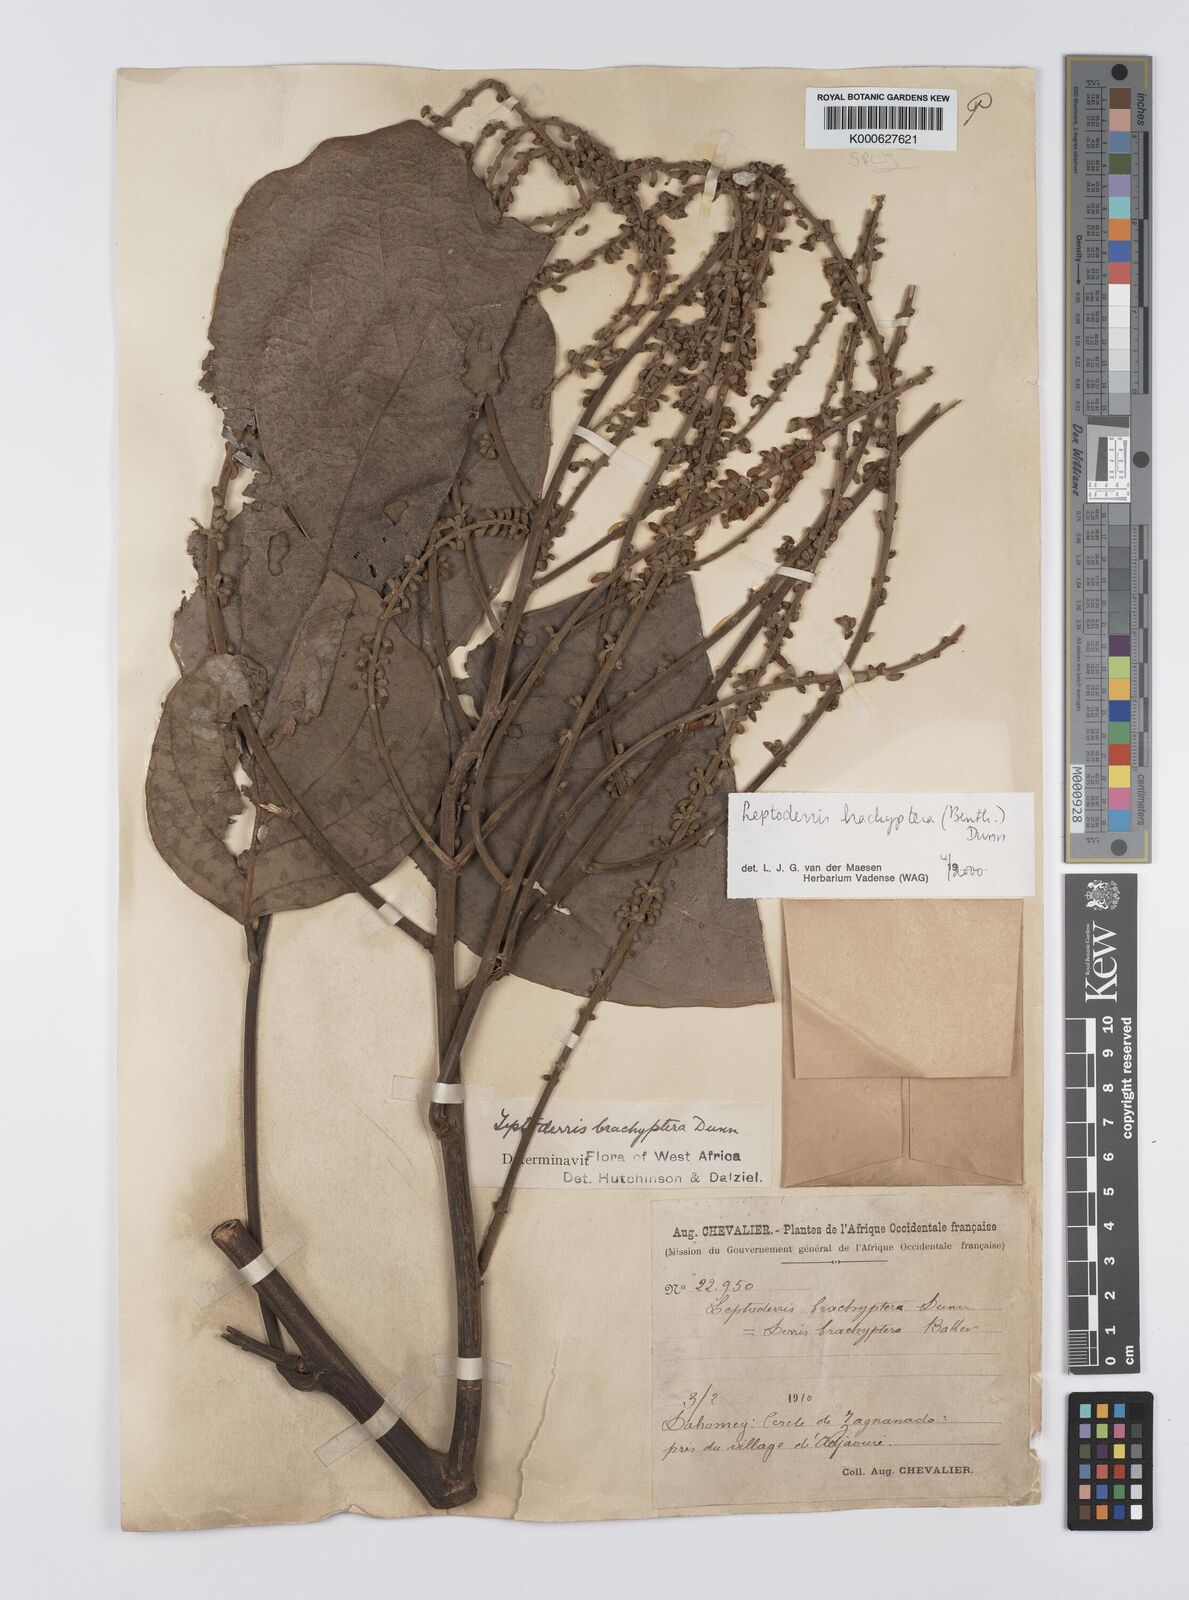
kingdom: Plantae
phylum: Tracheophyta
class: Magnoliopsida
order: Fabales
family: Fabaceae
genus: Leptoderris
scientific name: Leptoderris brachyptera
